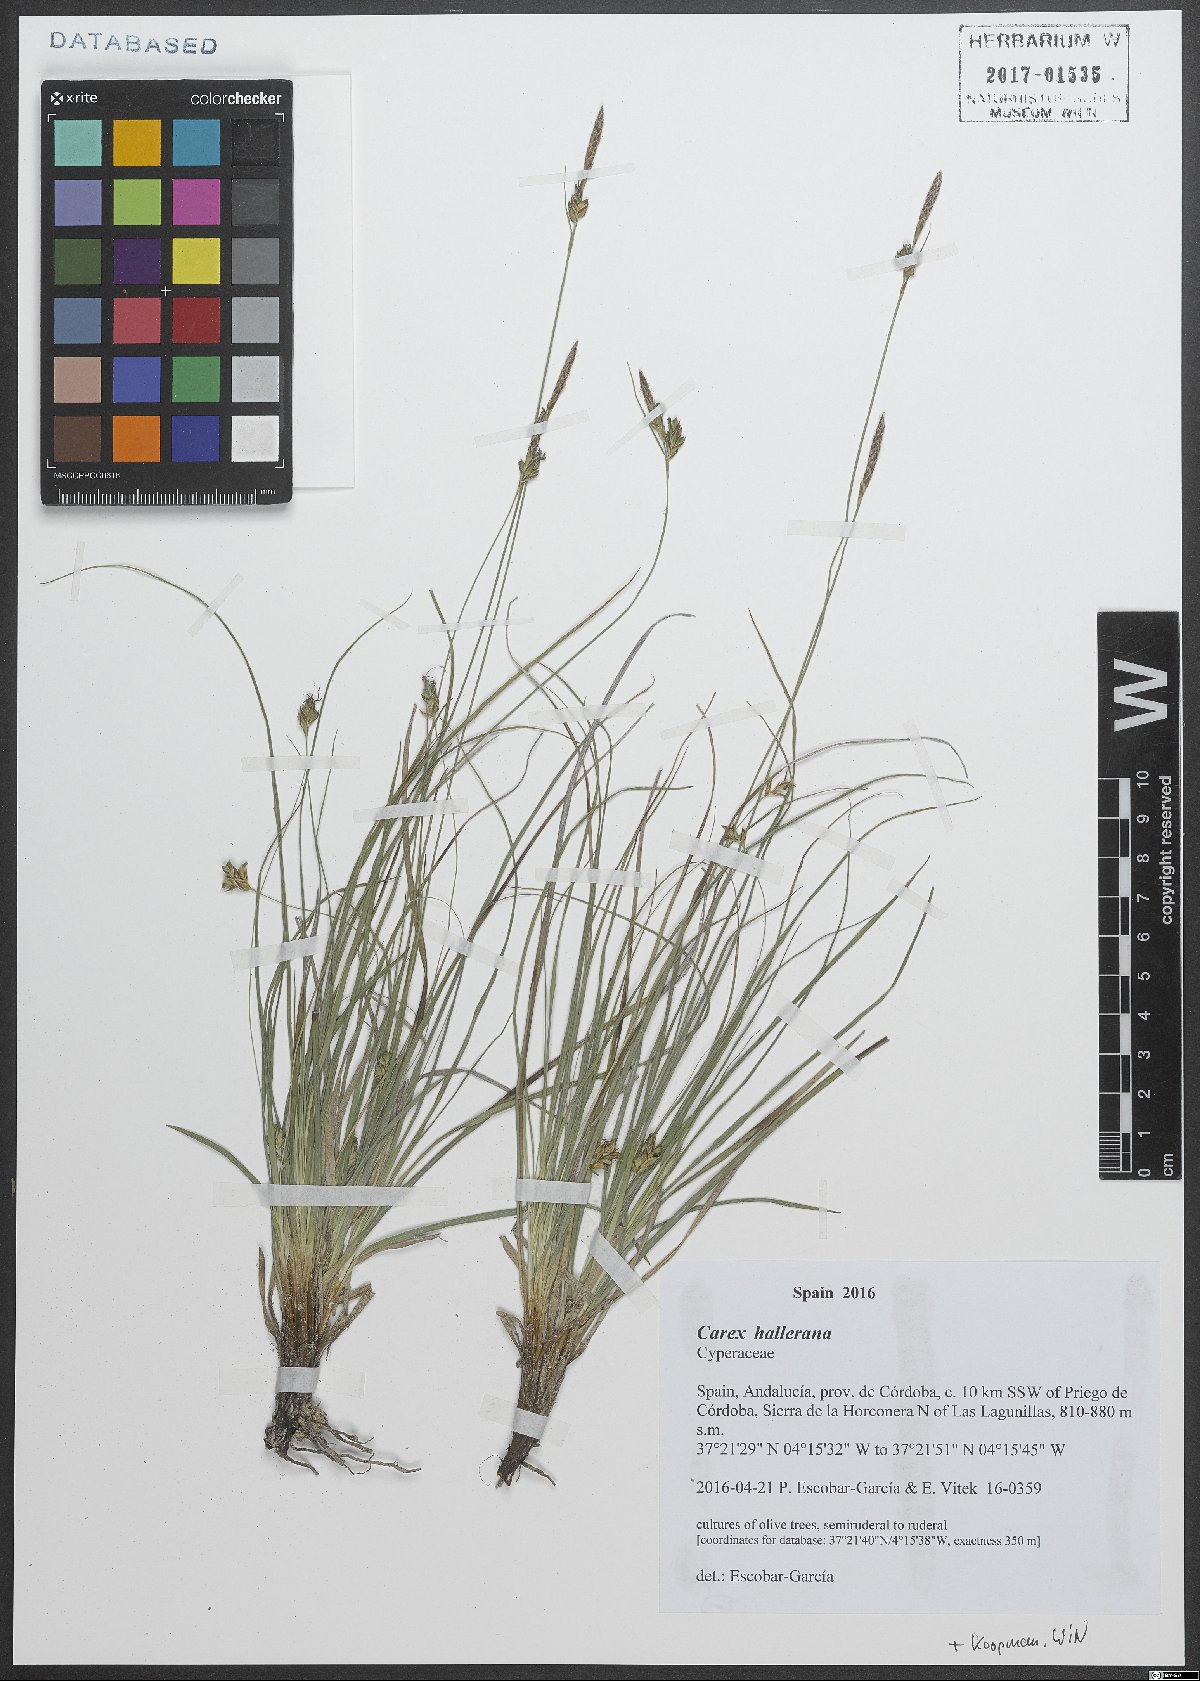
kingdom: Plantae
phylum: Tracheophyta
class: Liliopsida
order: Poales
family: Cyperaceae
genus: Carex
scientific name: Carex halleriana
